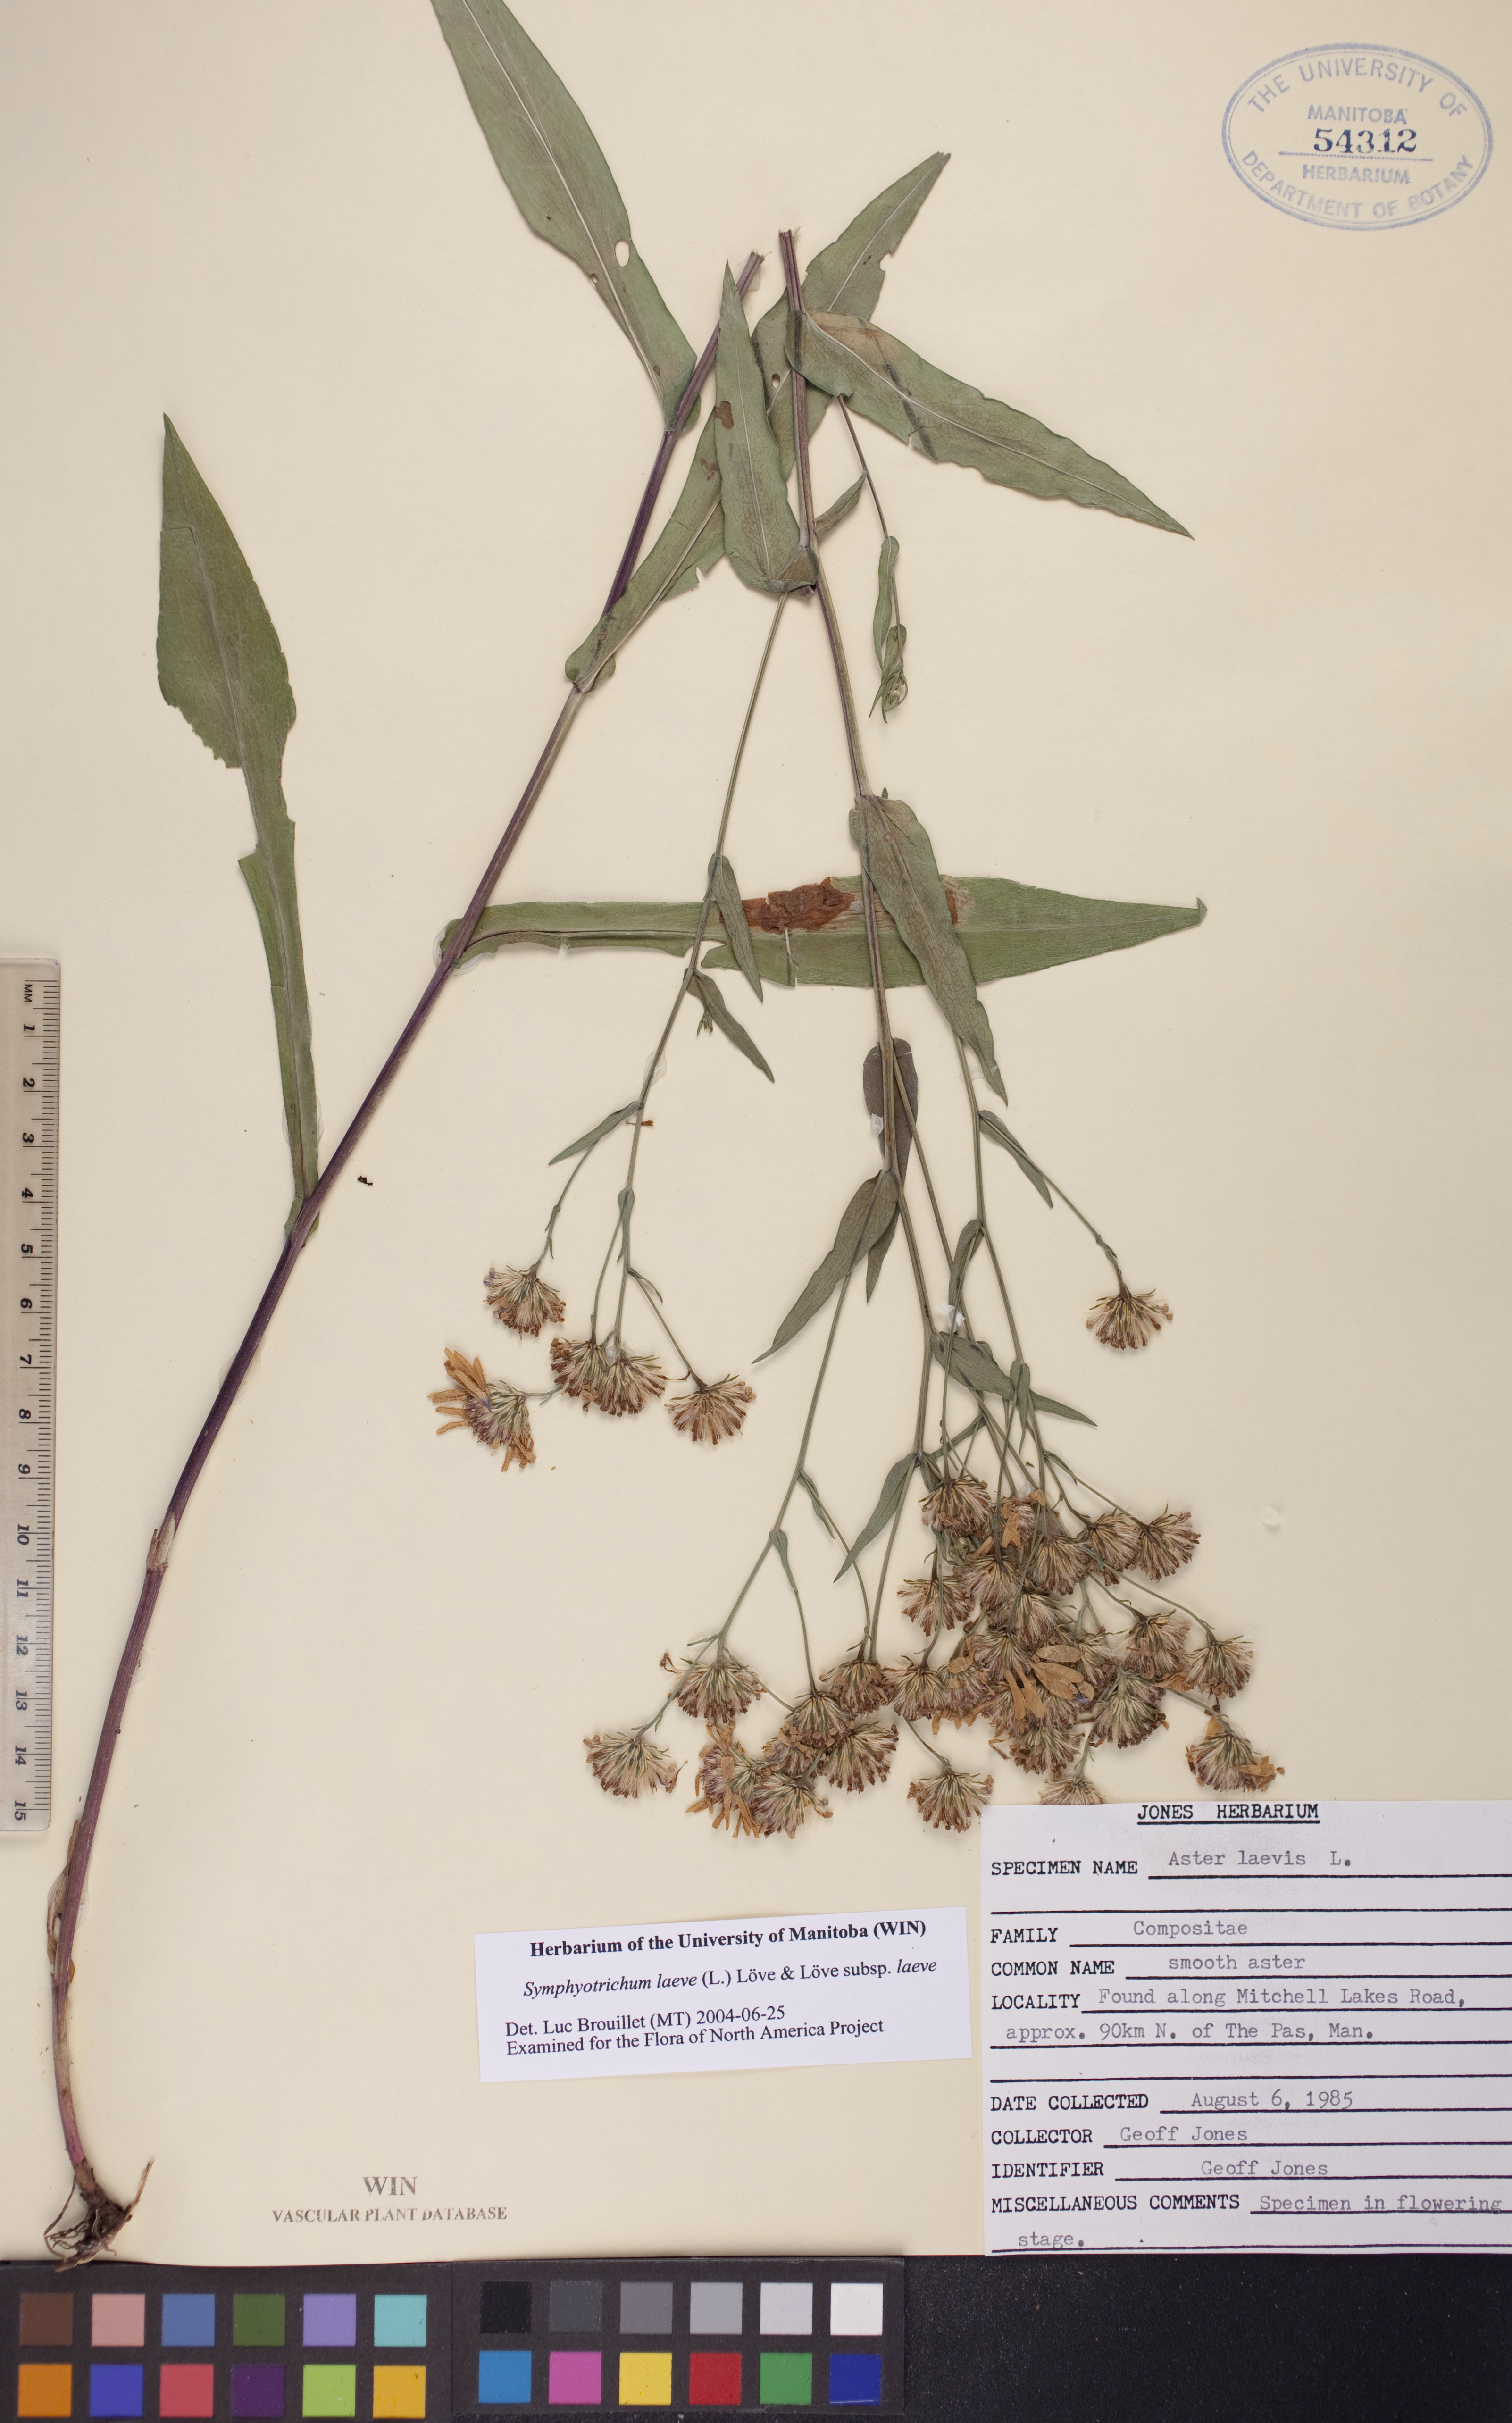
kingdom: Plantae
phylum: Tracheophyta
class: Magnoliopsida
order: Asterales
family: Asteraceae
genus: Symphyotrichum
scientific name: Symphyotrichum laeve
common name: Glaucous aster
